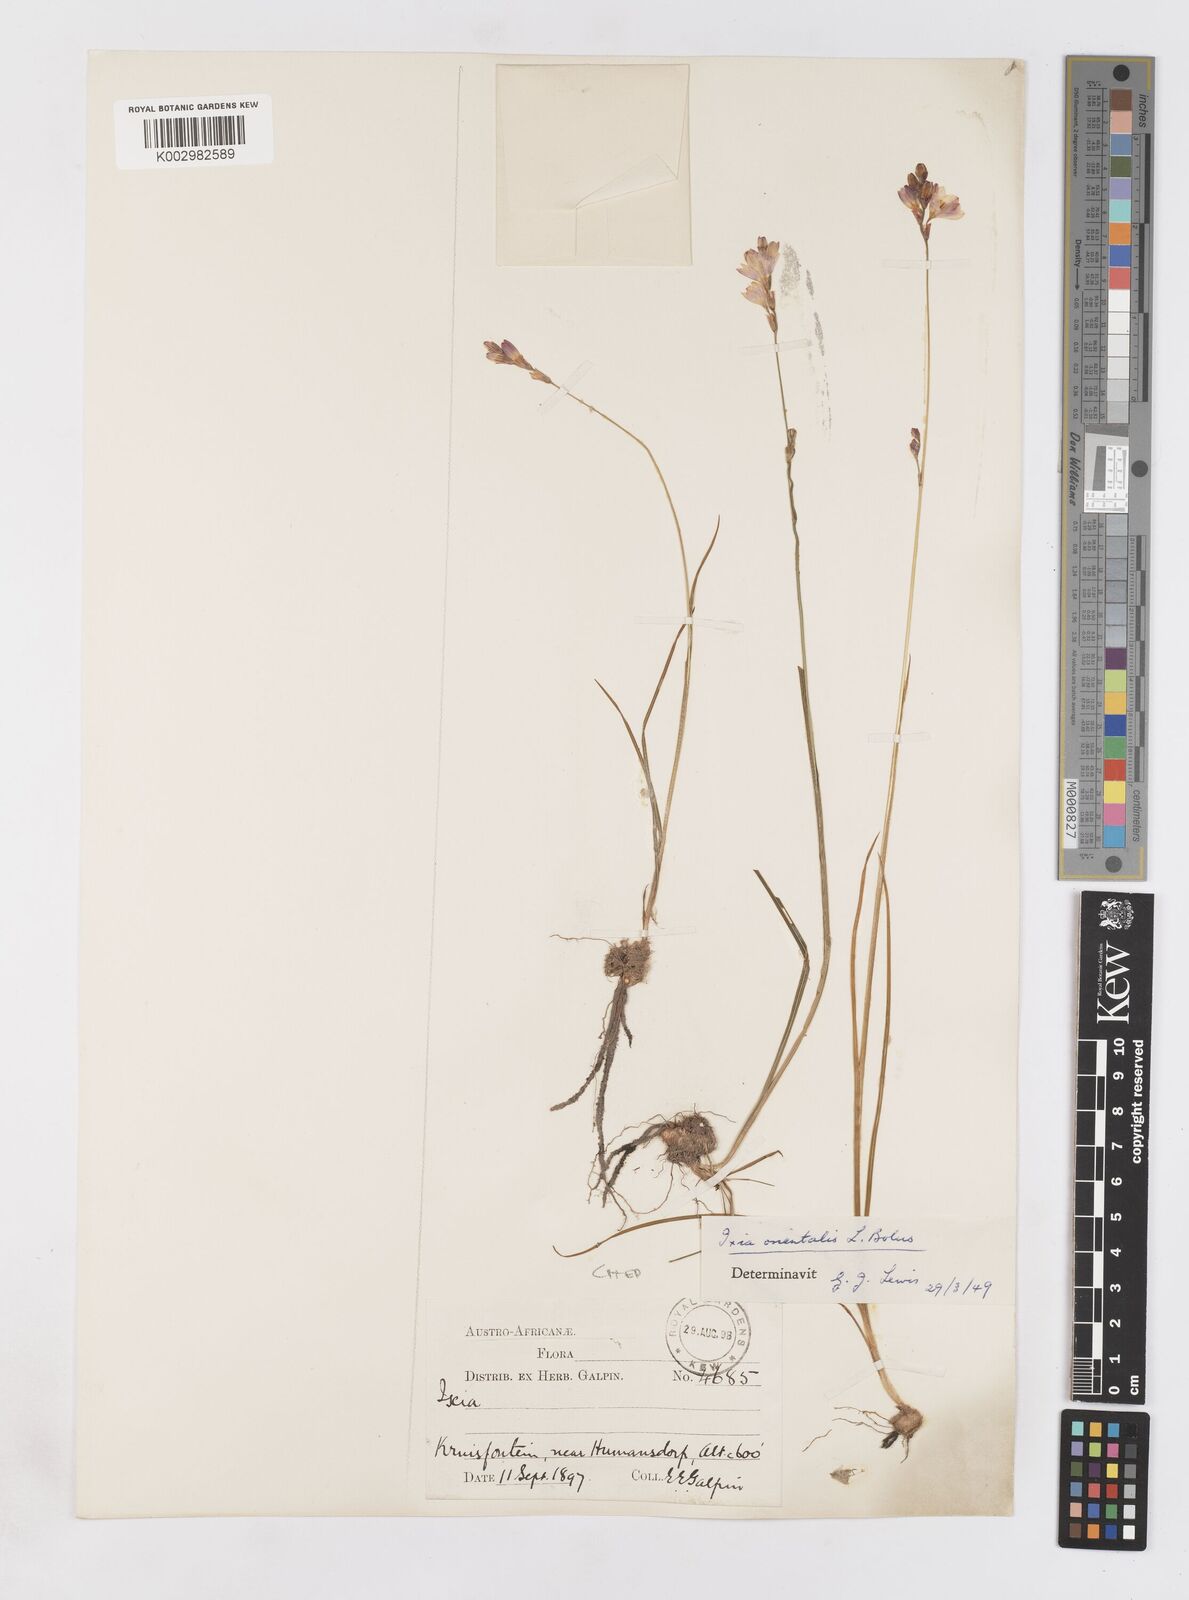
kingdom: Plantae
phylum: Tracheophyta
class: Liliopsida
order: Asparagales
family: Iridaceae
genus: Ixia
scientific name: Ixia orientalis
